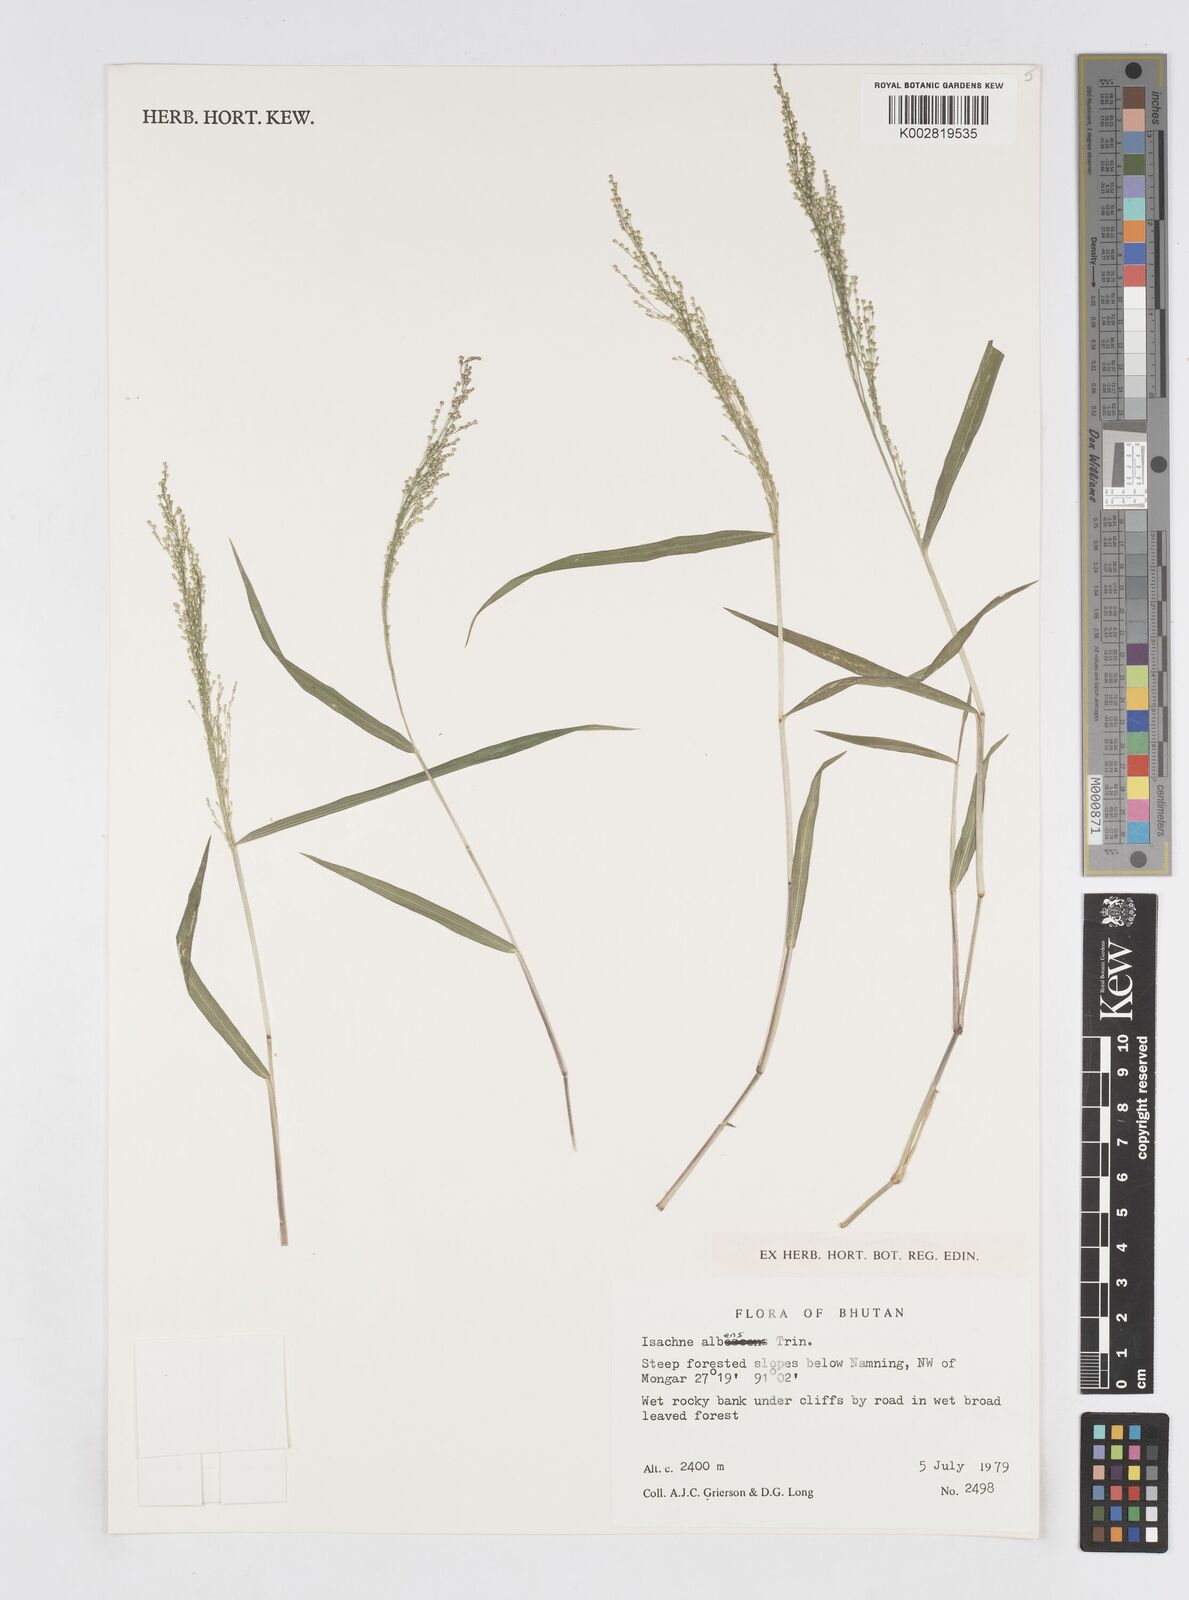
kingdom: Plantae
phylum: Tracheophyta
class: Liliopsida
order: Poales
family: Poaceae
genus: Isachne
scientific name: Isachne albens
